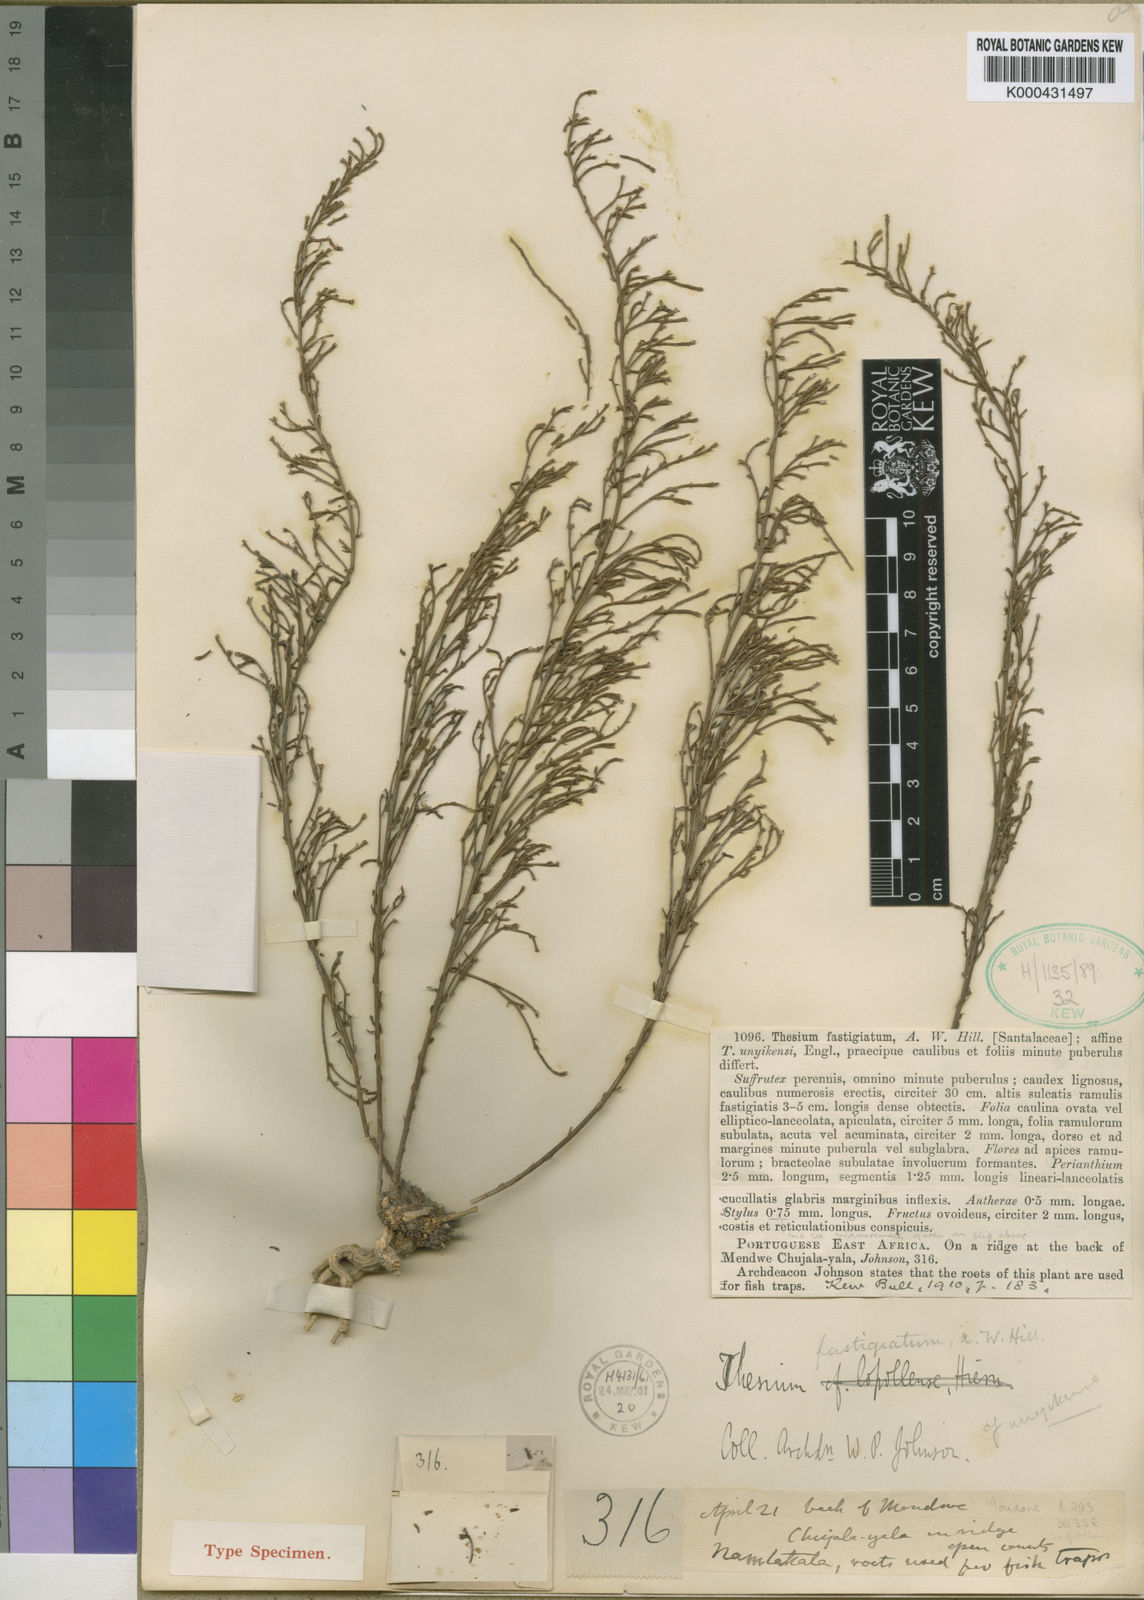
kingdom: Plantae
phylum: Tracheophyta
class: Magnoliopsida
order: Santalales
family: Thesiaceae
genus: Thesium
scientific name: Thesium fastigiatum
